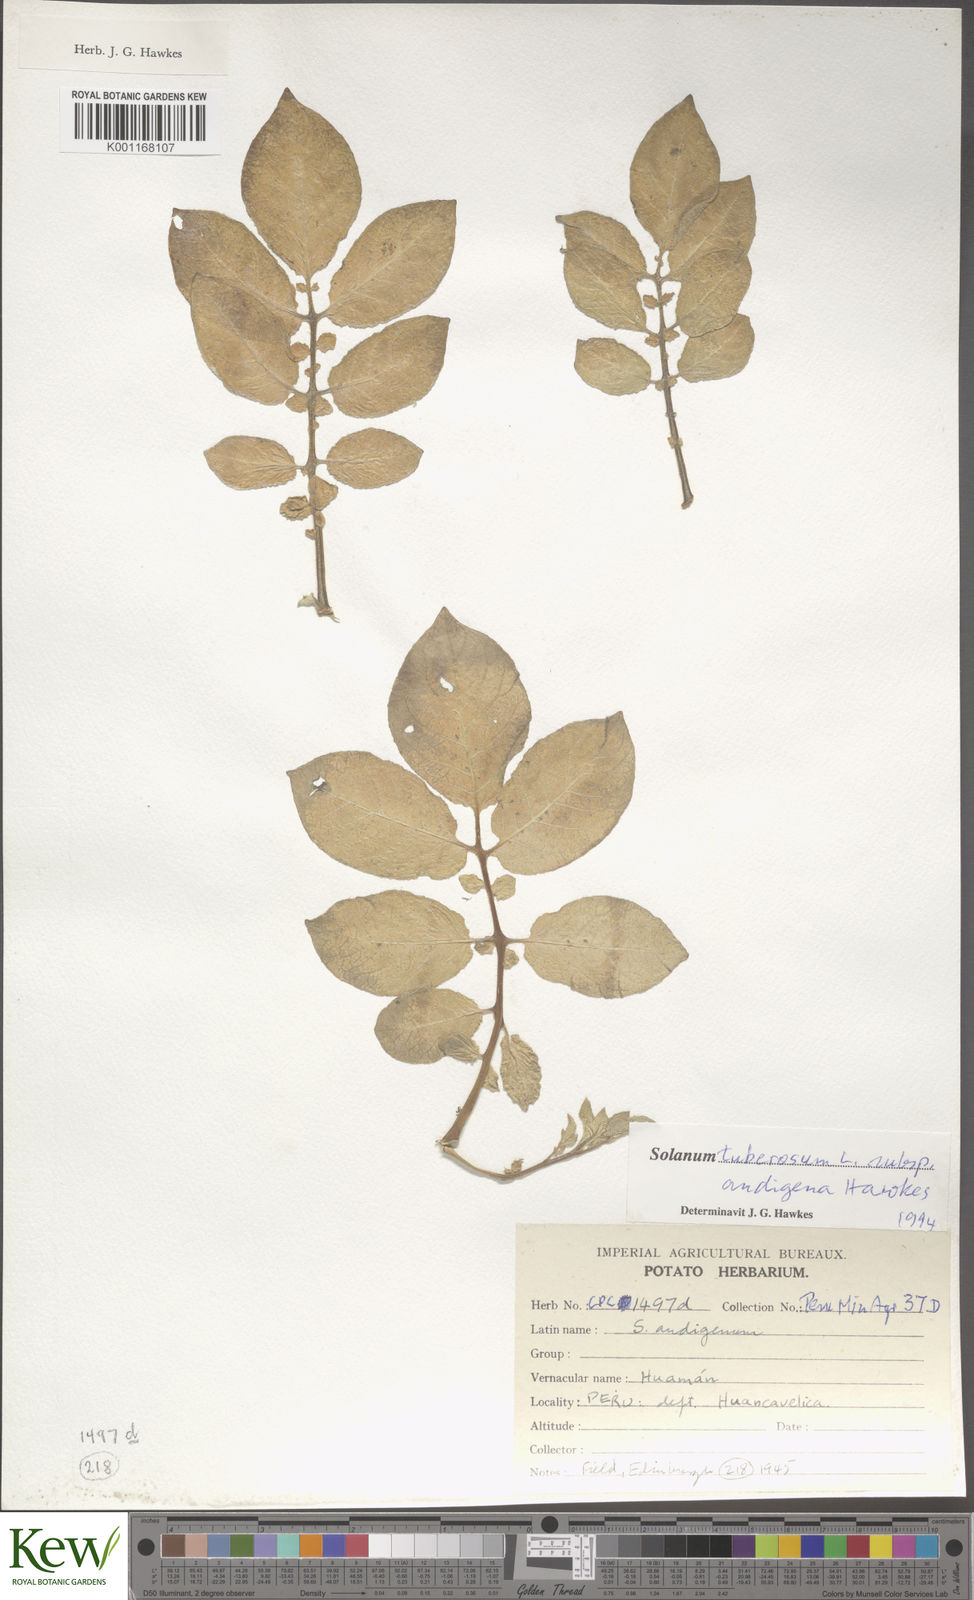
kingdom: Plantae
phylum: Tracheophyta
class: Magnoliopsida
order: Solanales
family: Solanaceae
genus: Solanum
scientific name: Solanum tuberosum
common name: Potato
